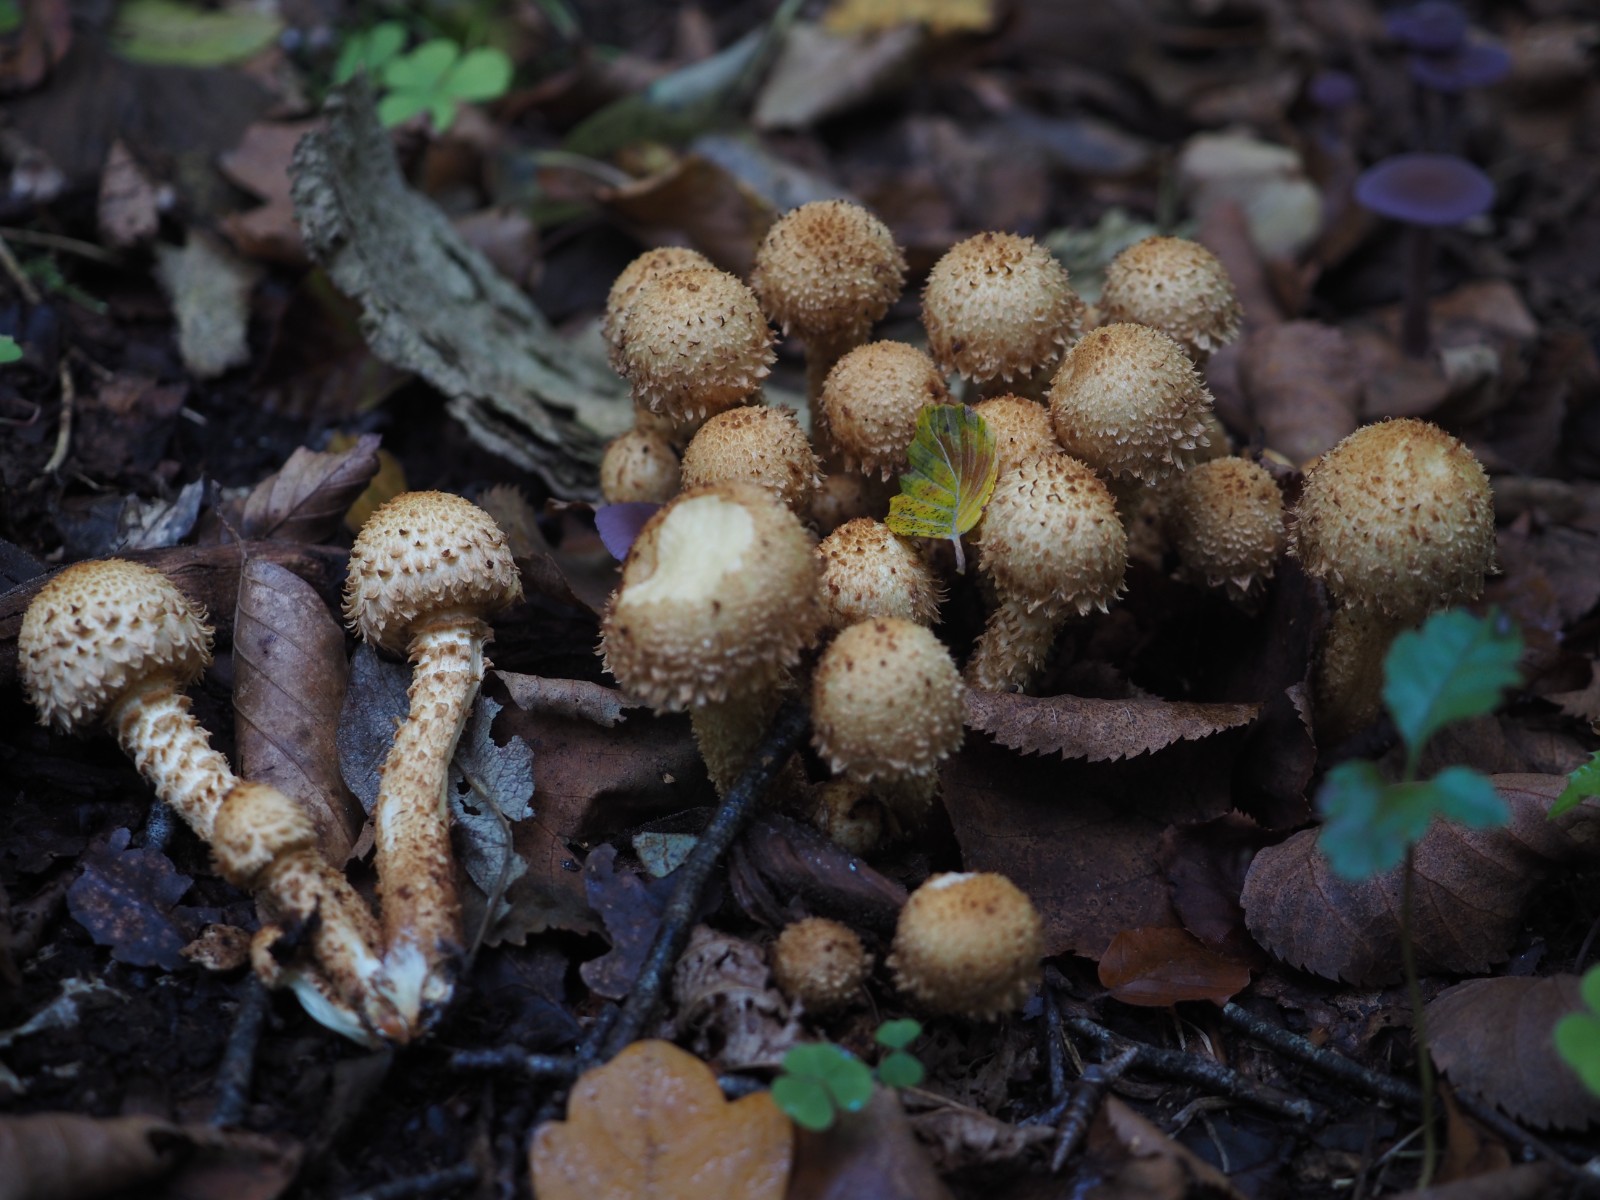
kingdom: Fungi
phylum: Basidiomycota
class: Agaricomycetes
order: Agaricales
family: Strophariaceae
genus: Pholiota
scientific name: Pholiota squarrosa
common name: krumskællet skælhat
